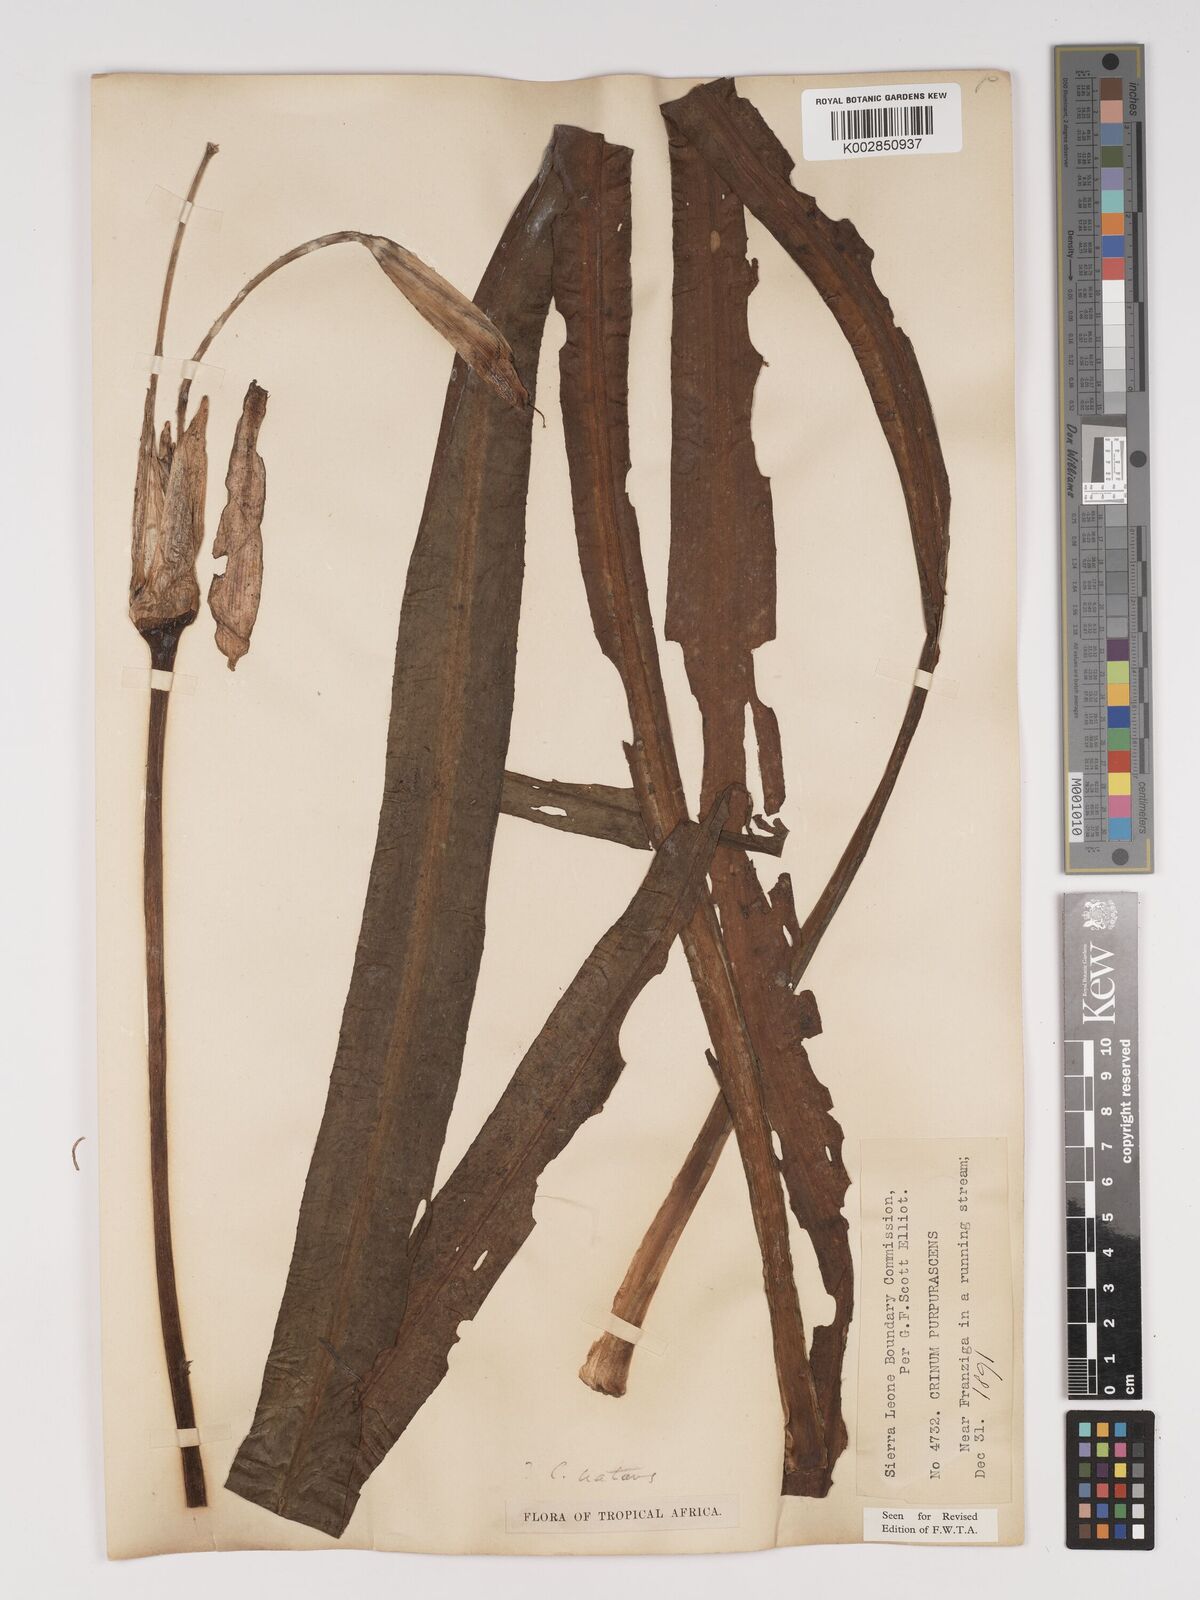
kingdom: Plantae
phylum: Tracheophyta
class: Liliopsida
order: Asparagales
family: Amaryllidaceae
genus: Crinum
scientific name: Crinum natans
